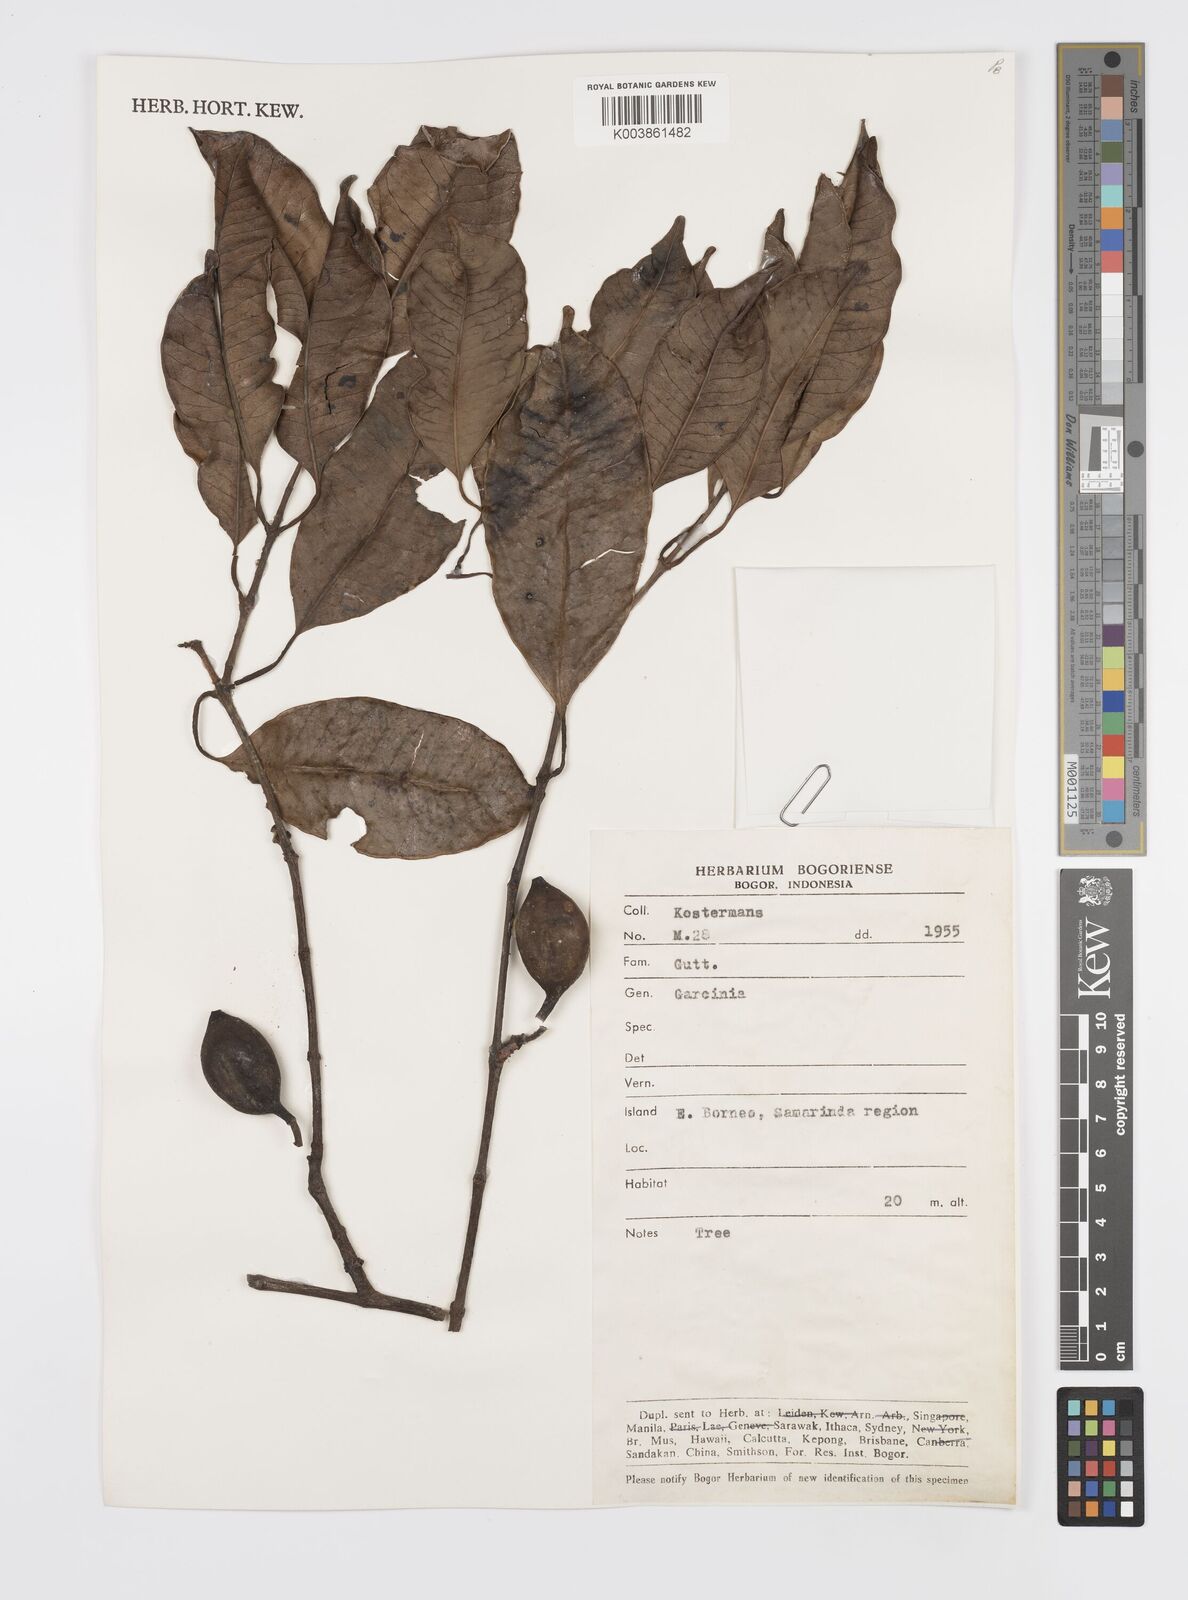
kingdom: Plantae
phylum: Tracheophyta
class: Magnoliopsida
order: Malpighiales
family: Clusiaceae
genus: Garcinia
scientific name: Garcinia
